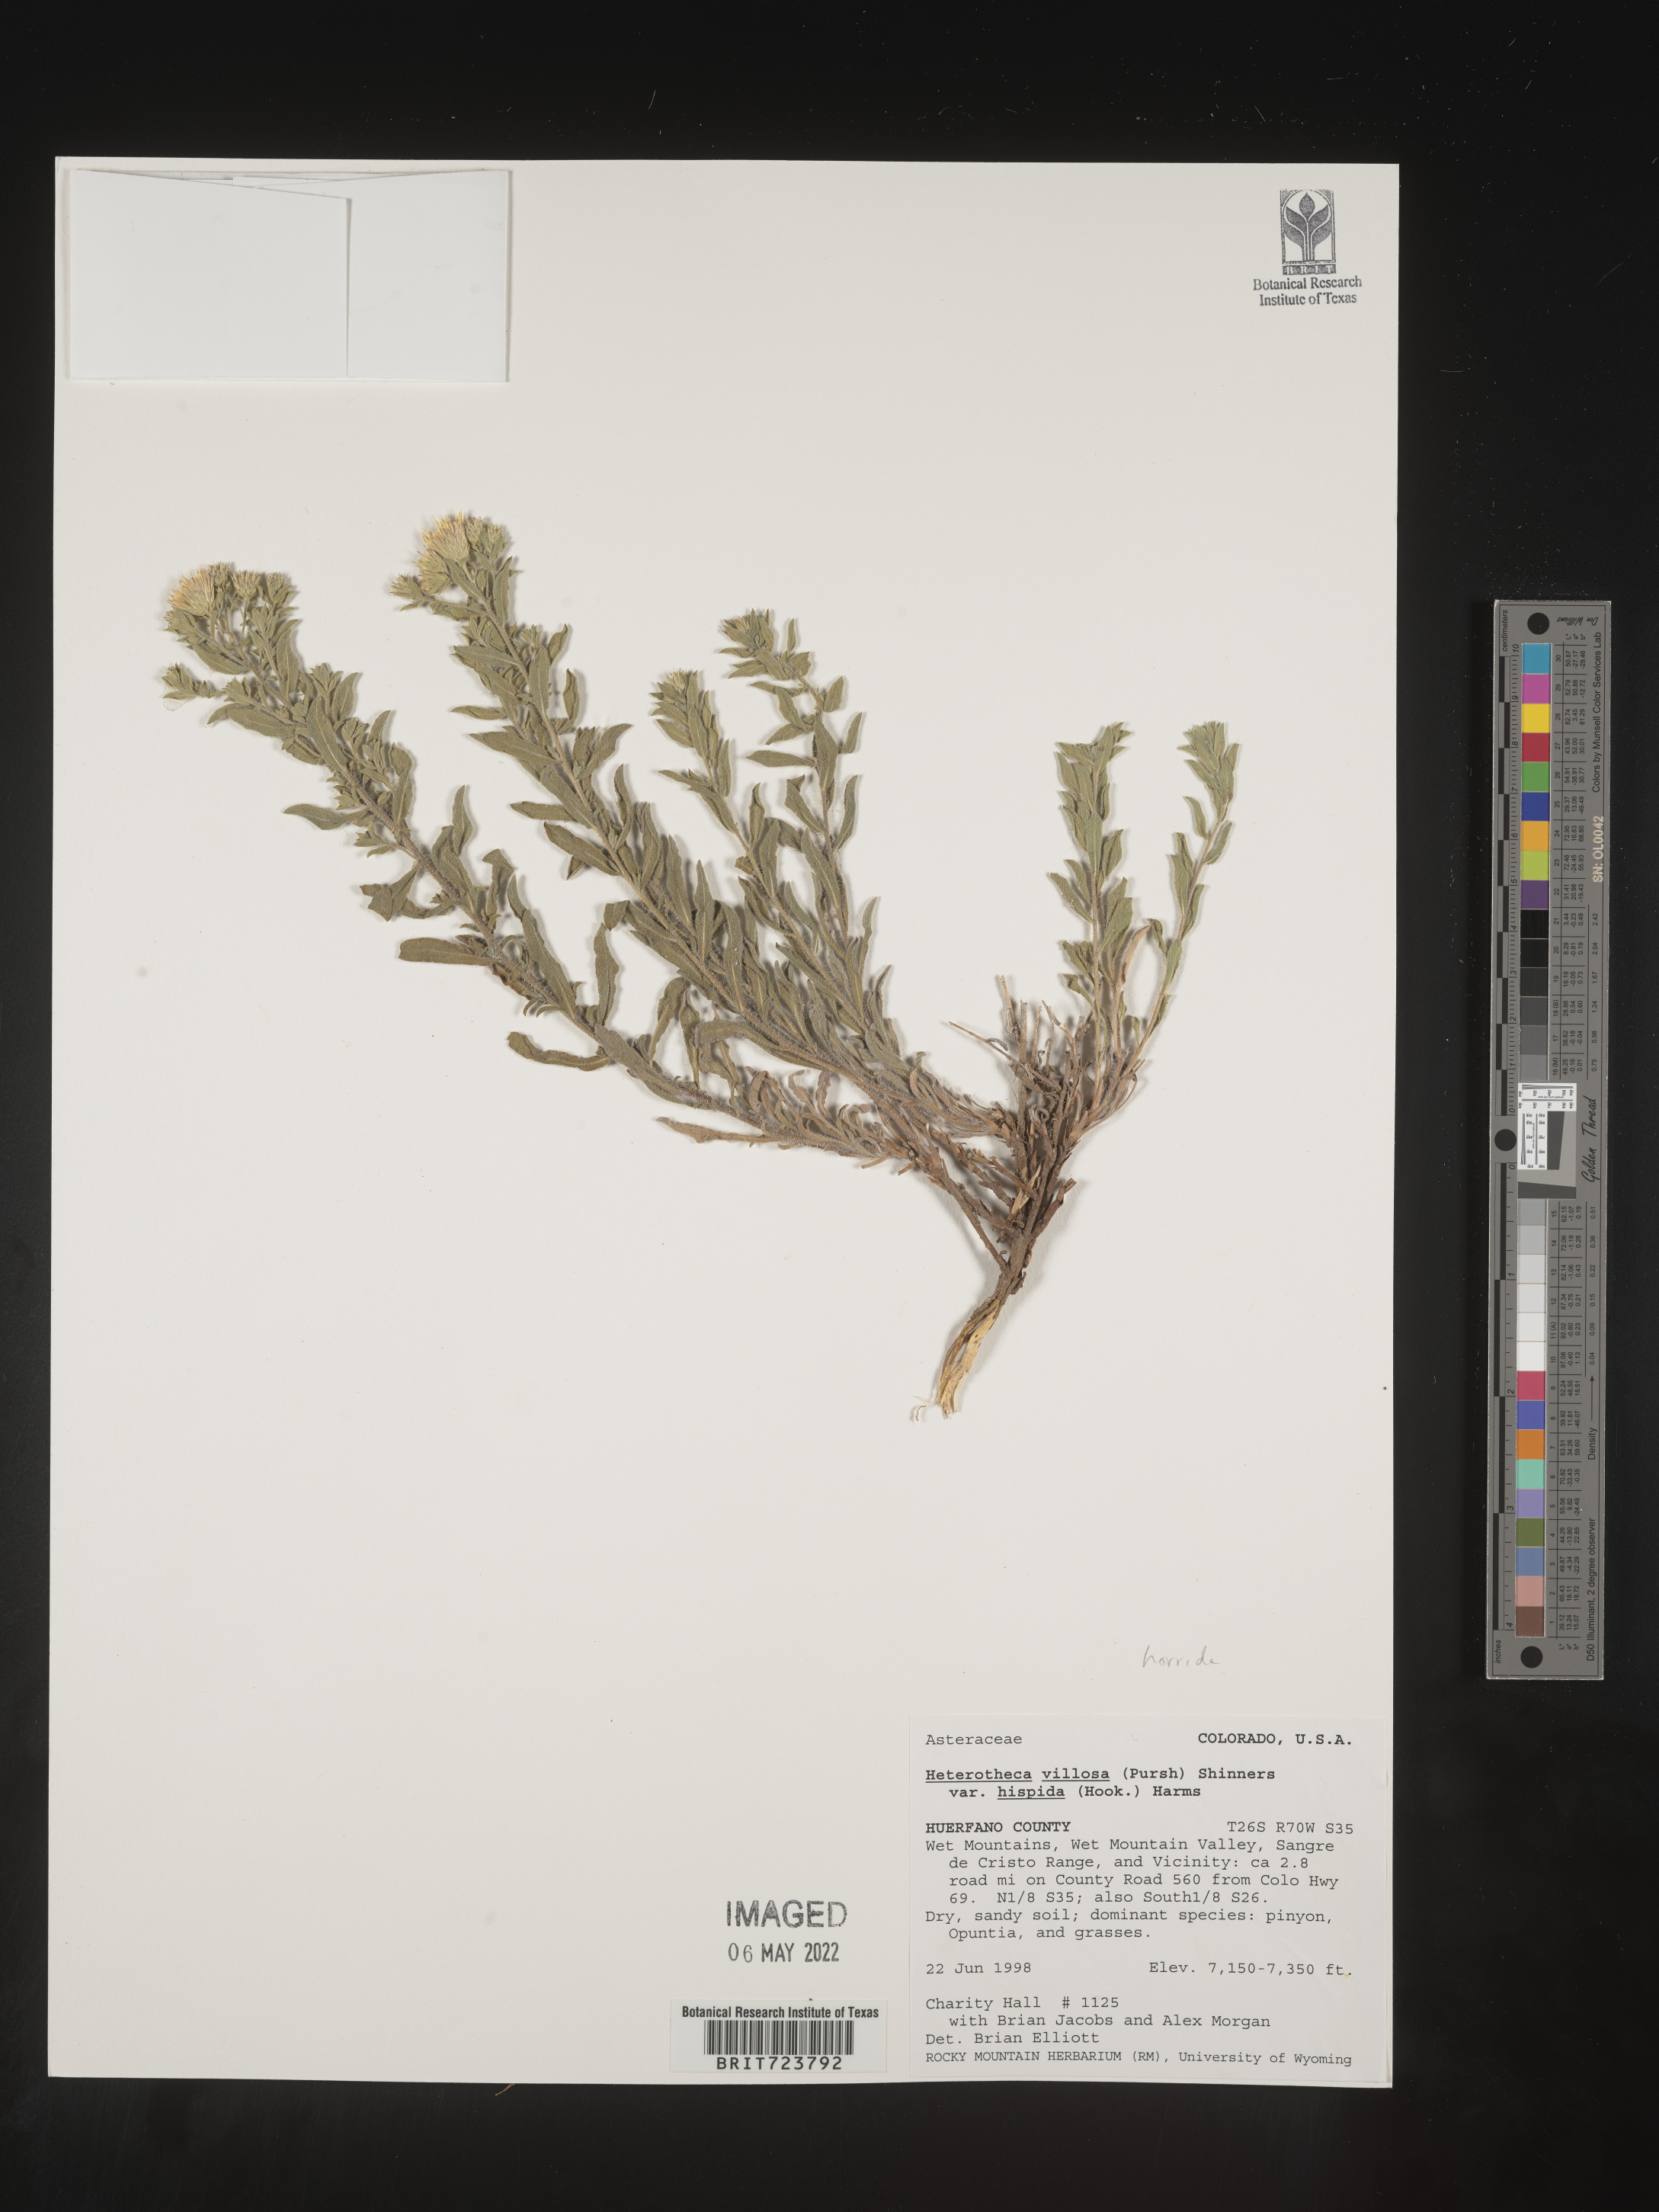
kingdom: Plantae
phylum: Tracheophyta
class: Magnoliopsida
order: Asterales
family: Asteraceae
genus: Heterotheca
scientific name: Heterotheca hirsutissima
